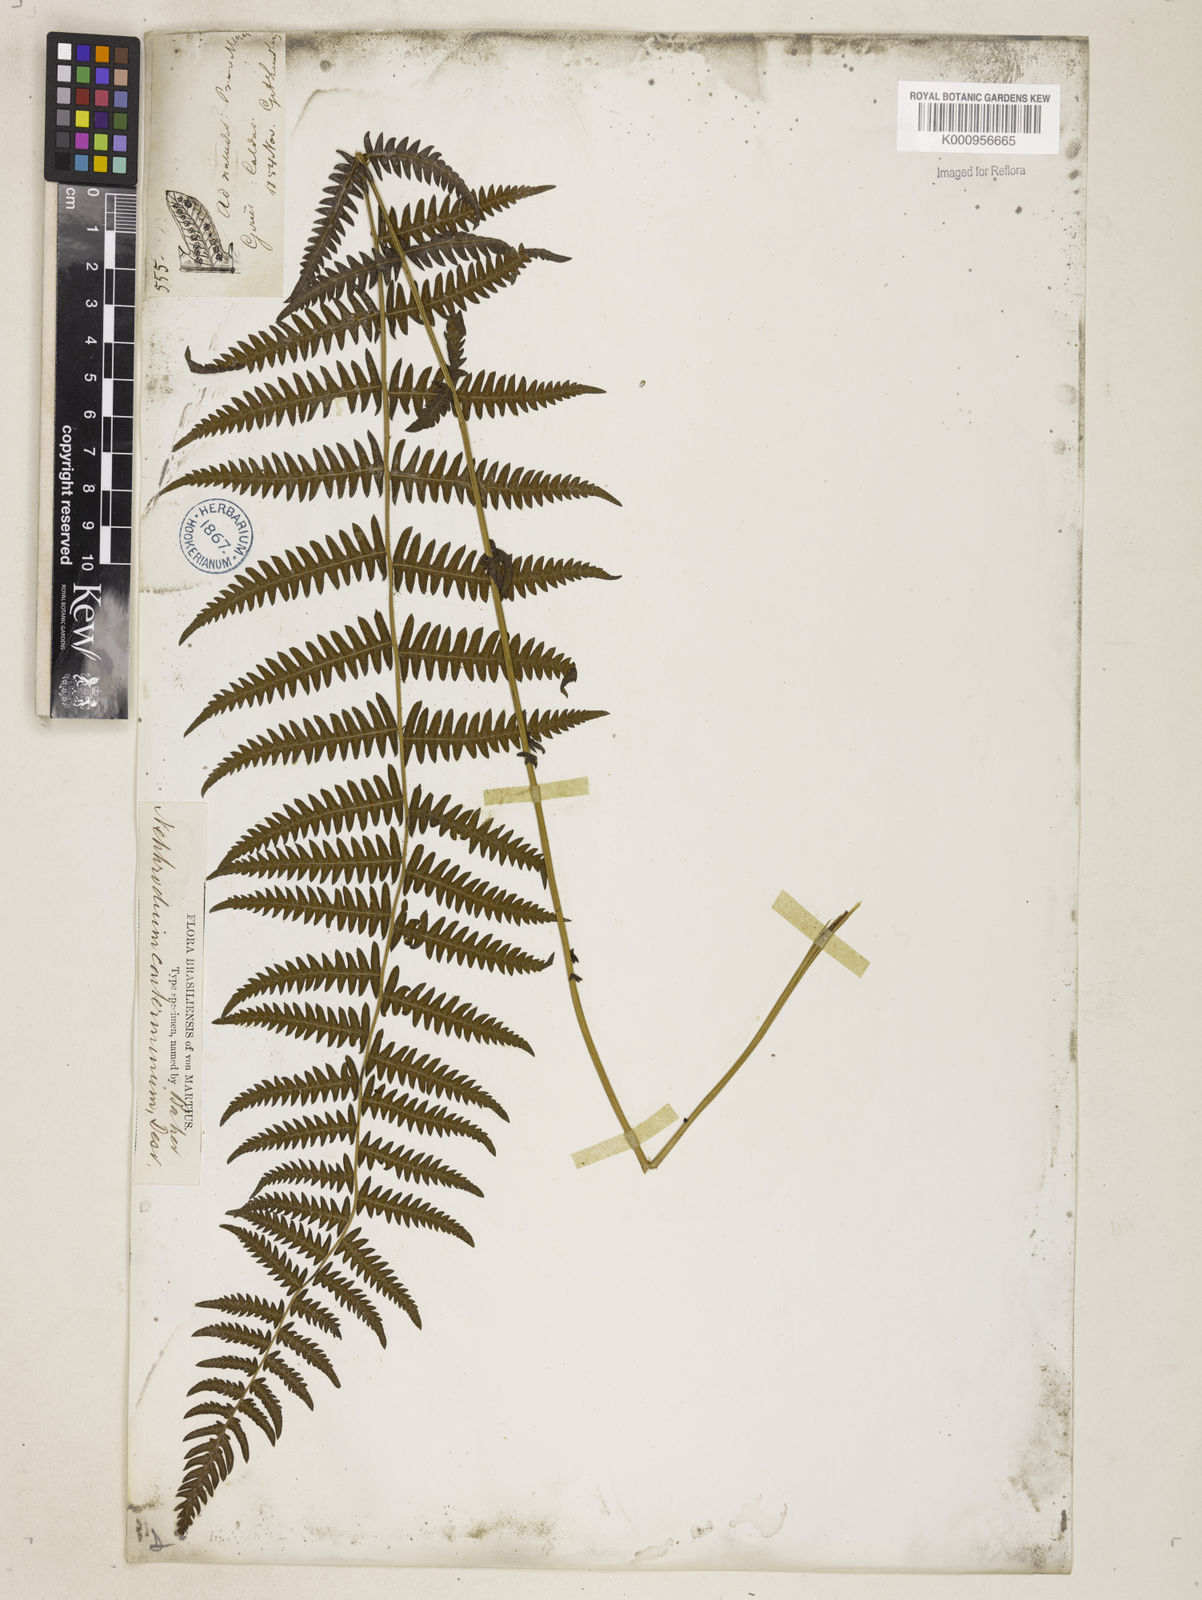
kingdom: Plantae
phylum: Tracheophyta
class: Polypodiopsida
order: Polypodiales
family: Thelypteridaceae
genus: Amauropelta
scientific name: Amauropelta oligocarpa
